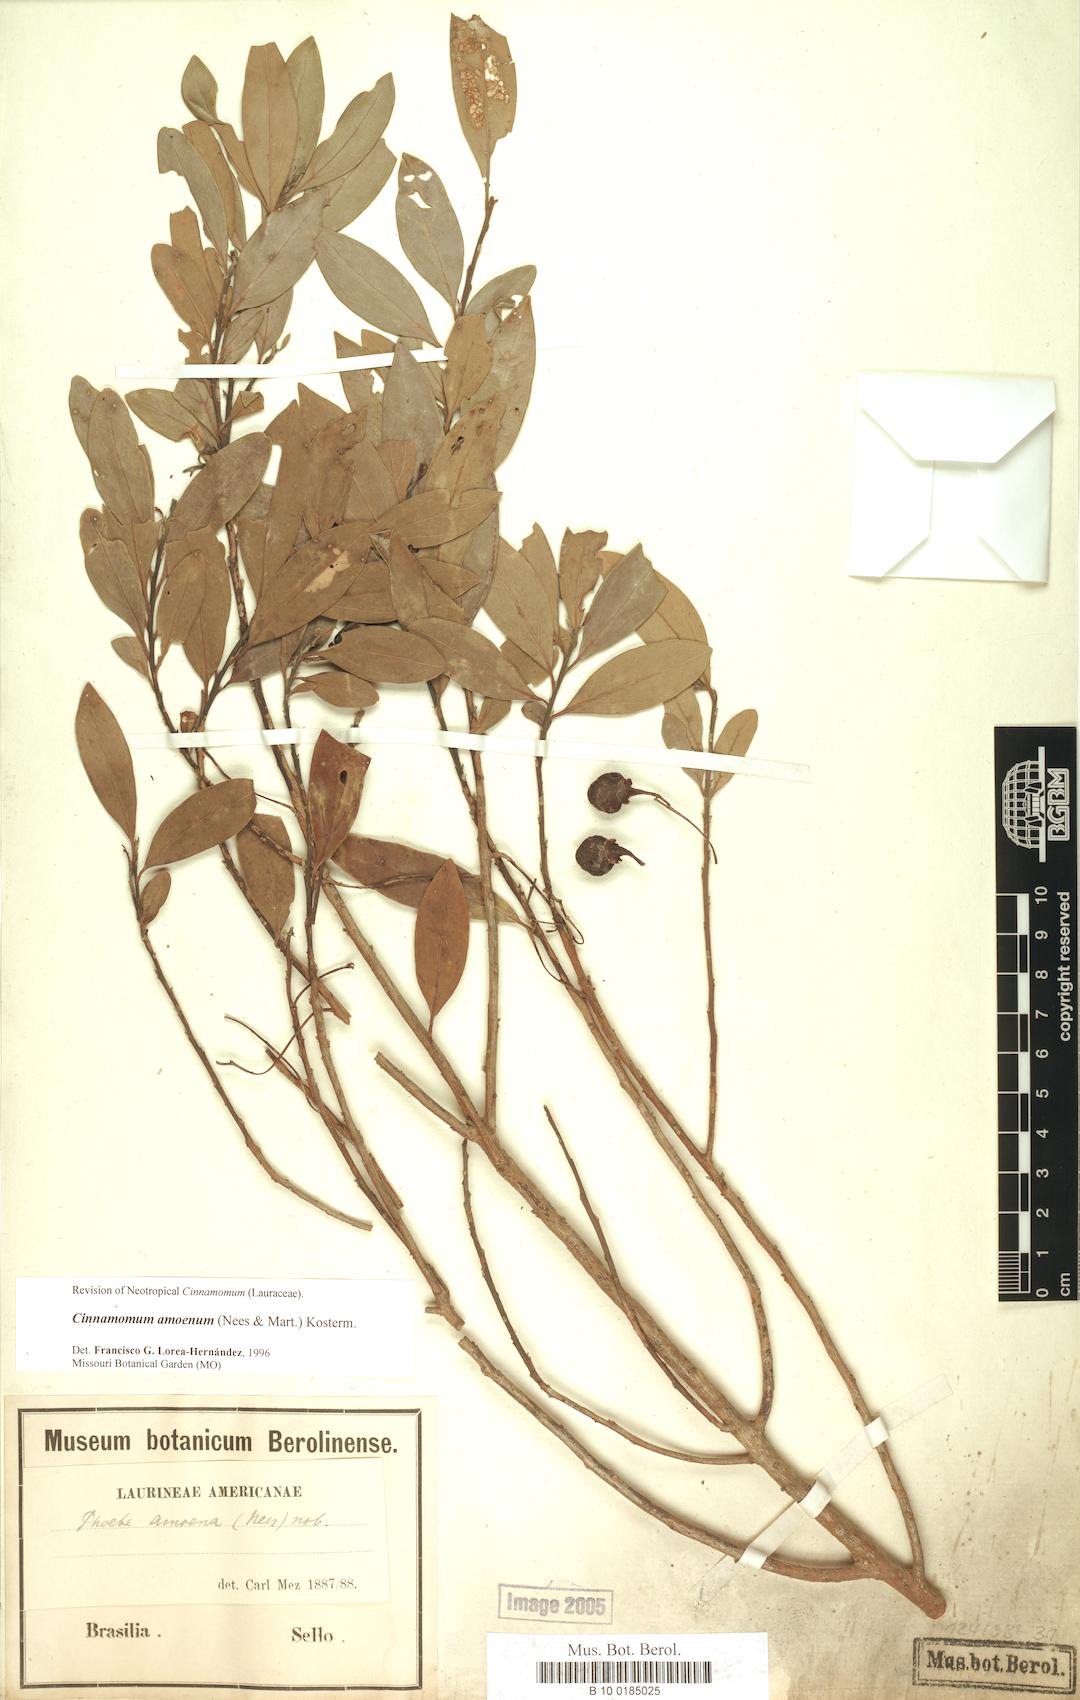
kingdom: Plantae
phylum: Tracheophyta
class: Magnoliopsida
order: Laurales
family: Lauraceae
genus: Aiouea
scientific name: Aiouea amoena
